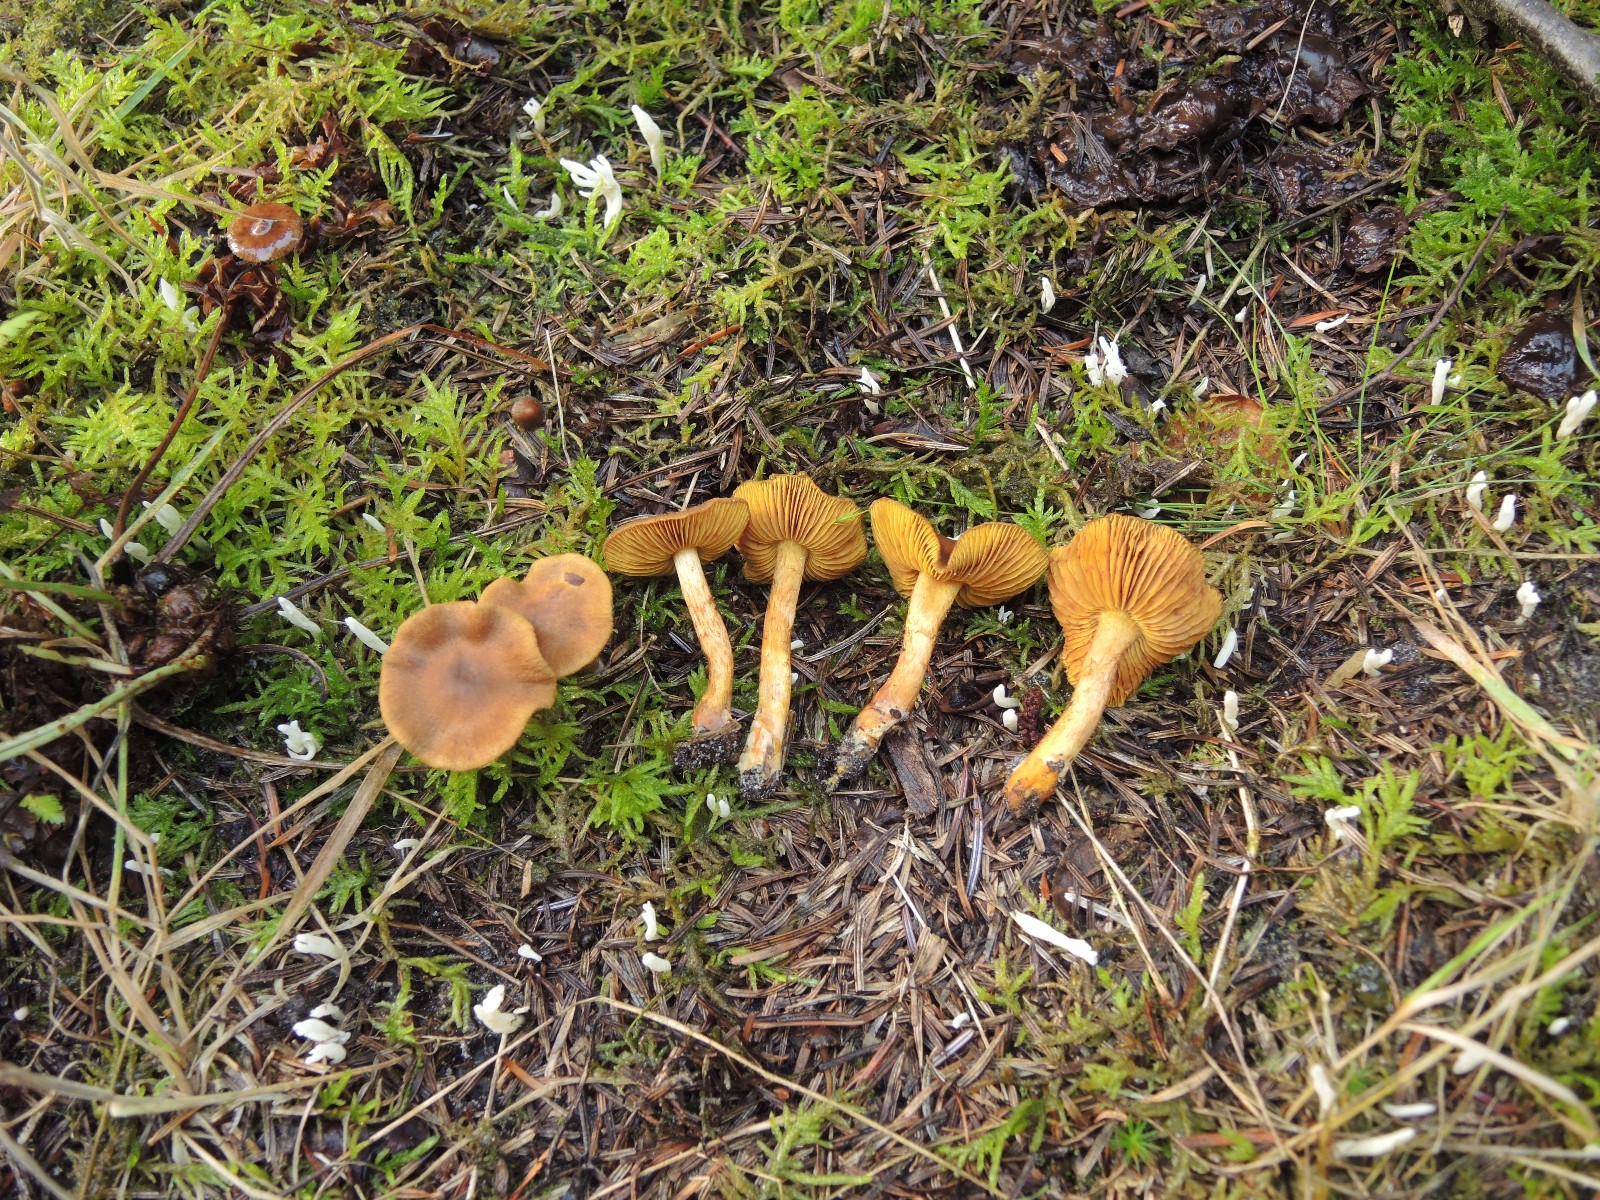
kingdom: Fungi
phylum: Basidiomycota
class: Agaricomycetes
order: Agaricales
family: Cortinariaceae
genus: Cortinarius
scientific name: Cortinarius transatlanticus
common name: transatlantisk slørhat
